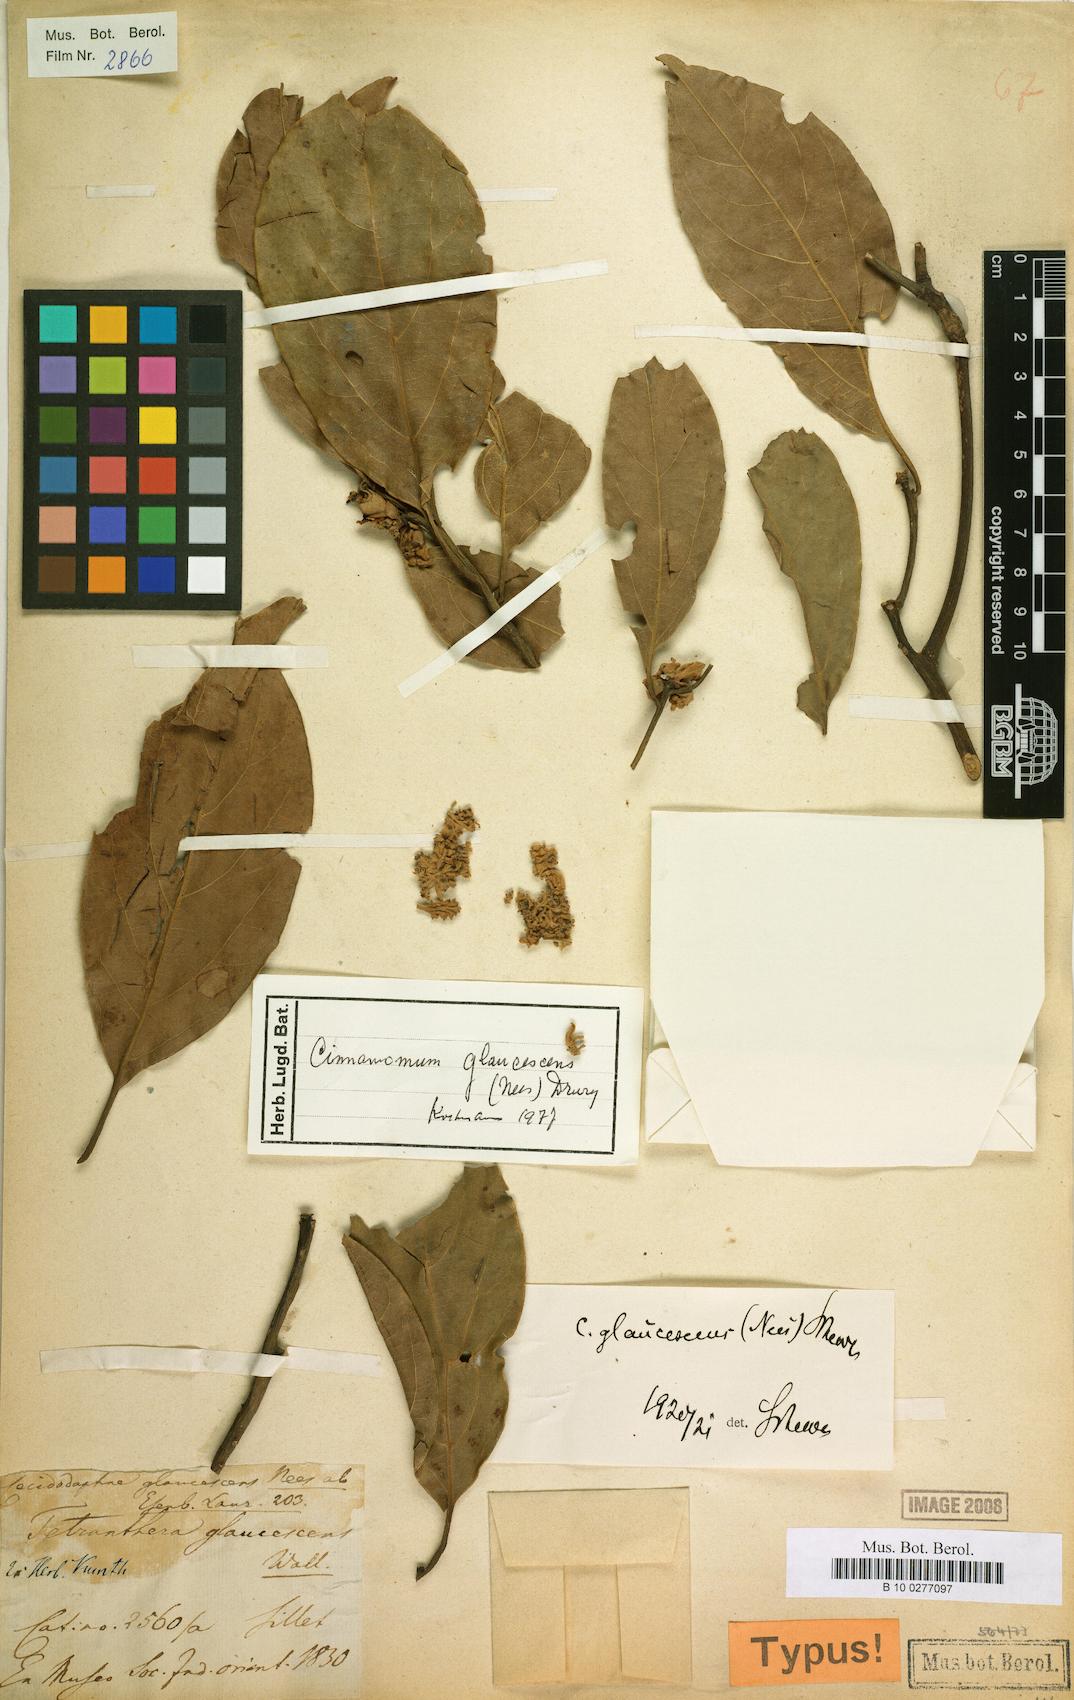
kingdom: Plantae
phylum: Tracheophyta
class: Magnoliopsida
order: Laurales
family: Lauraceae
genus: Cinnamomum
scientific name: Cinnamomum glaucescens
